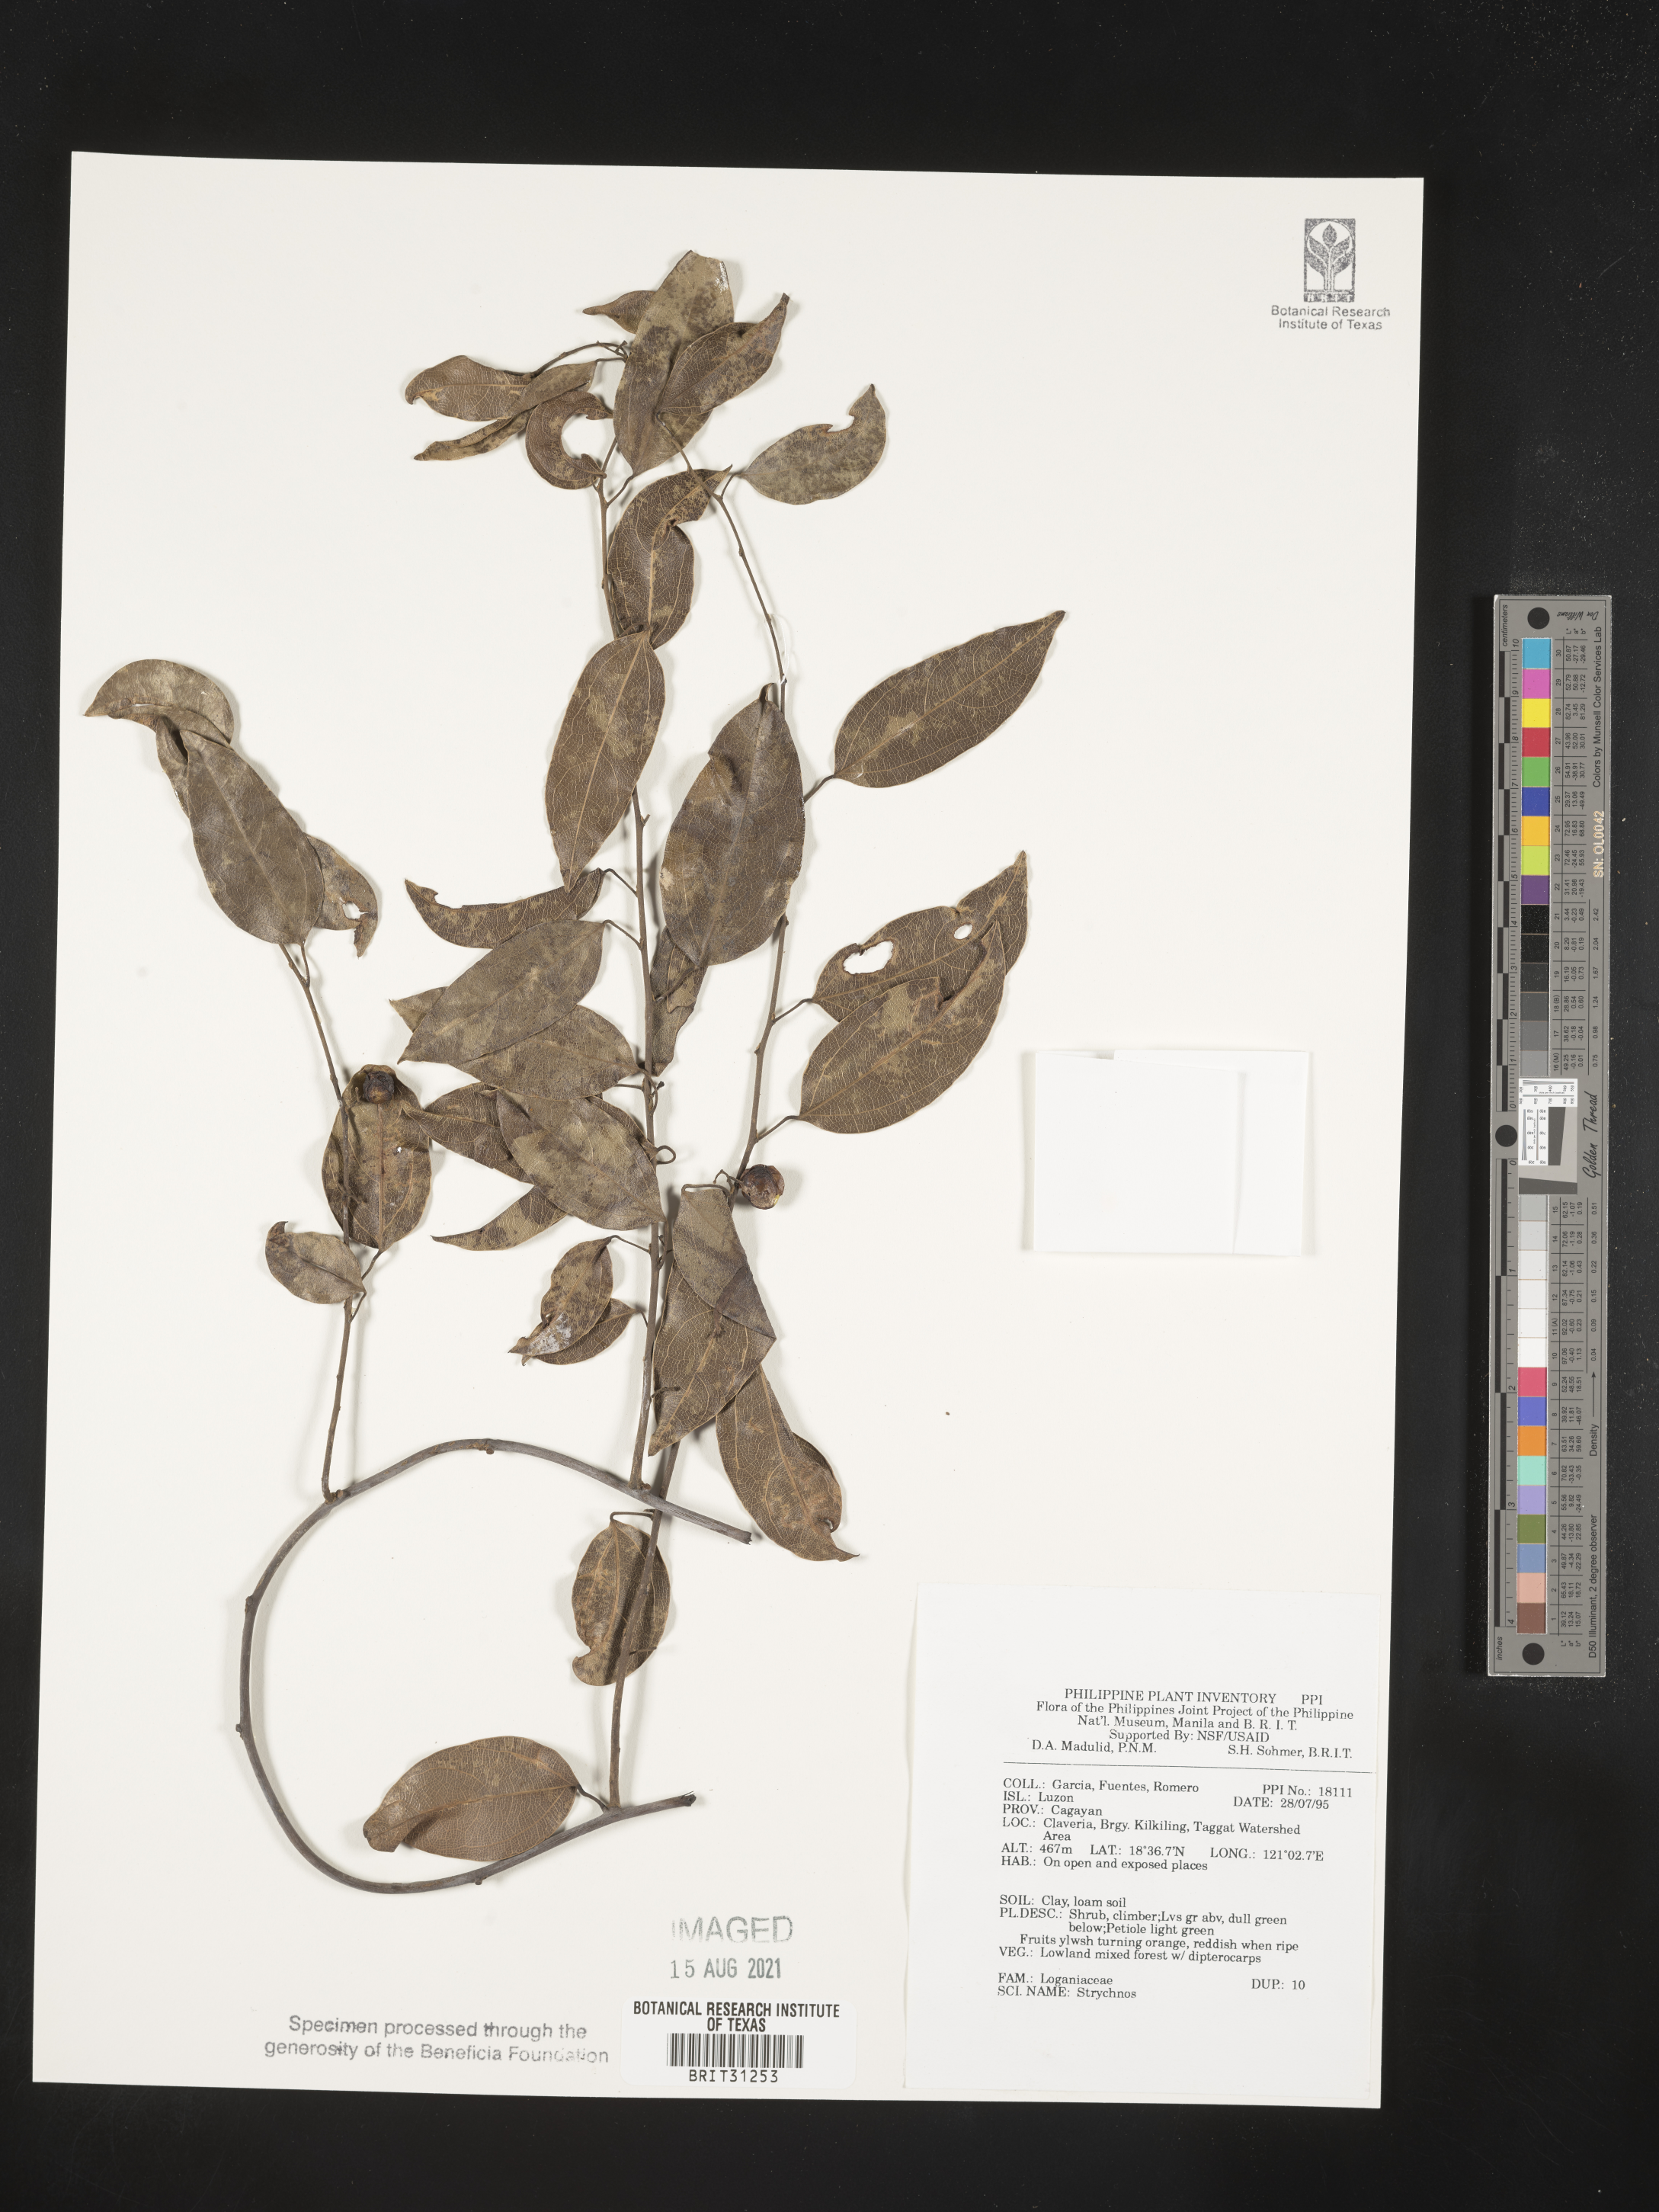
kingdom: Plantae
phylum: Tracheophyta
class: Magnoliopsida
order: Gentianales
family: Loganiaceae
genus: Strychnos
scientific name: Strychnos
